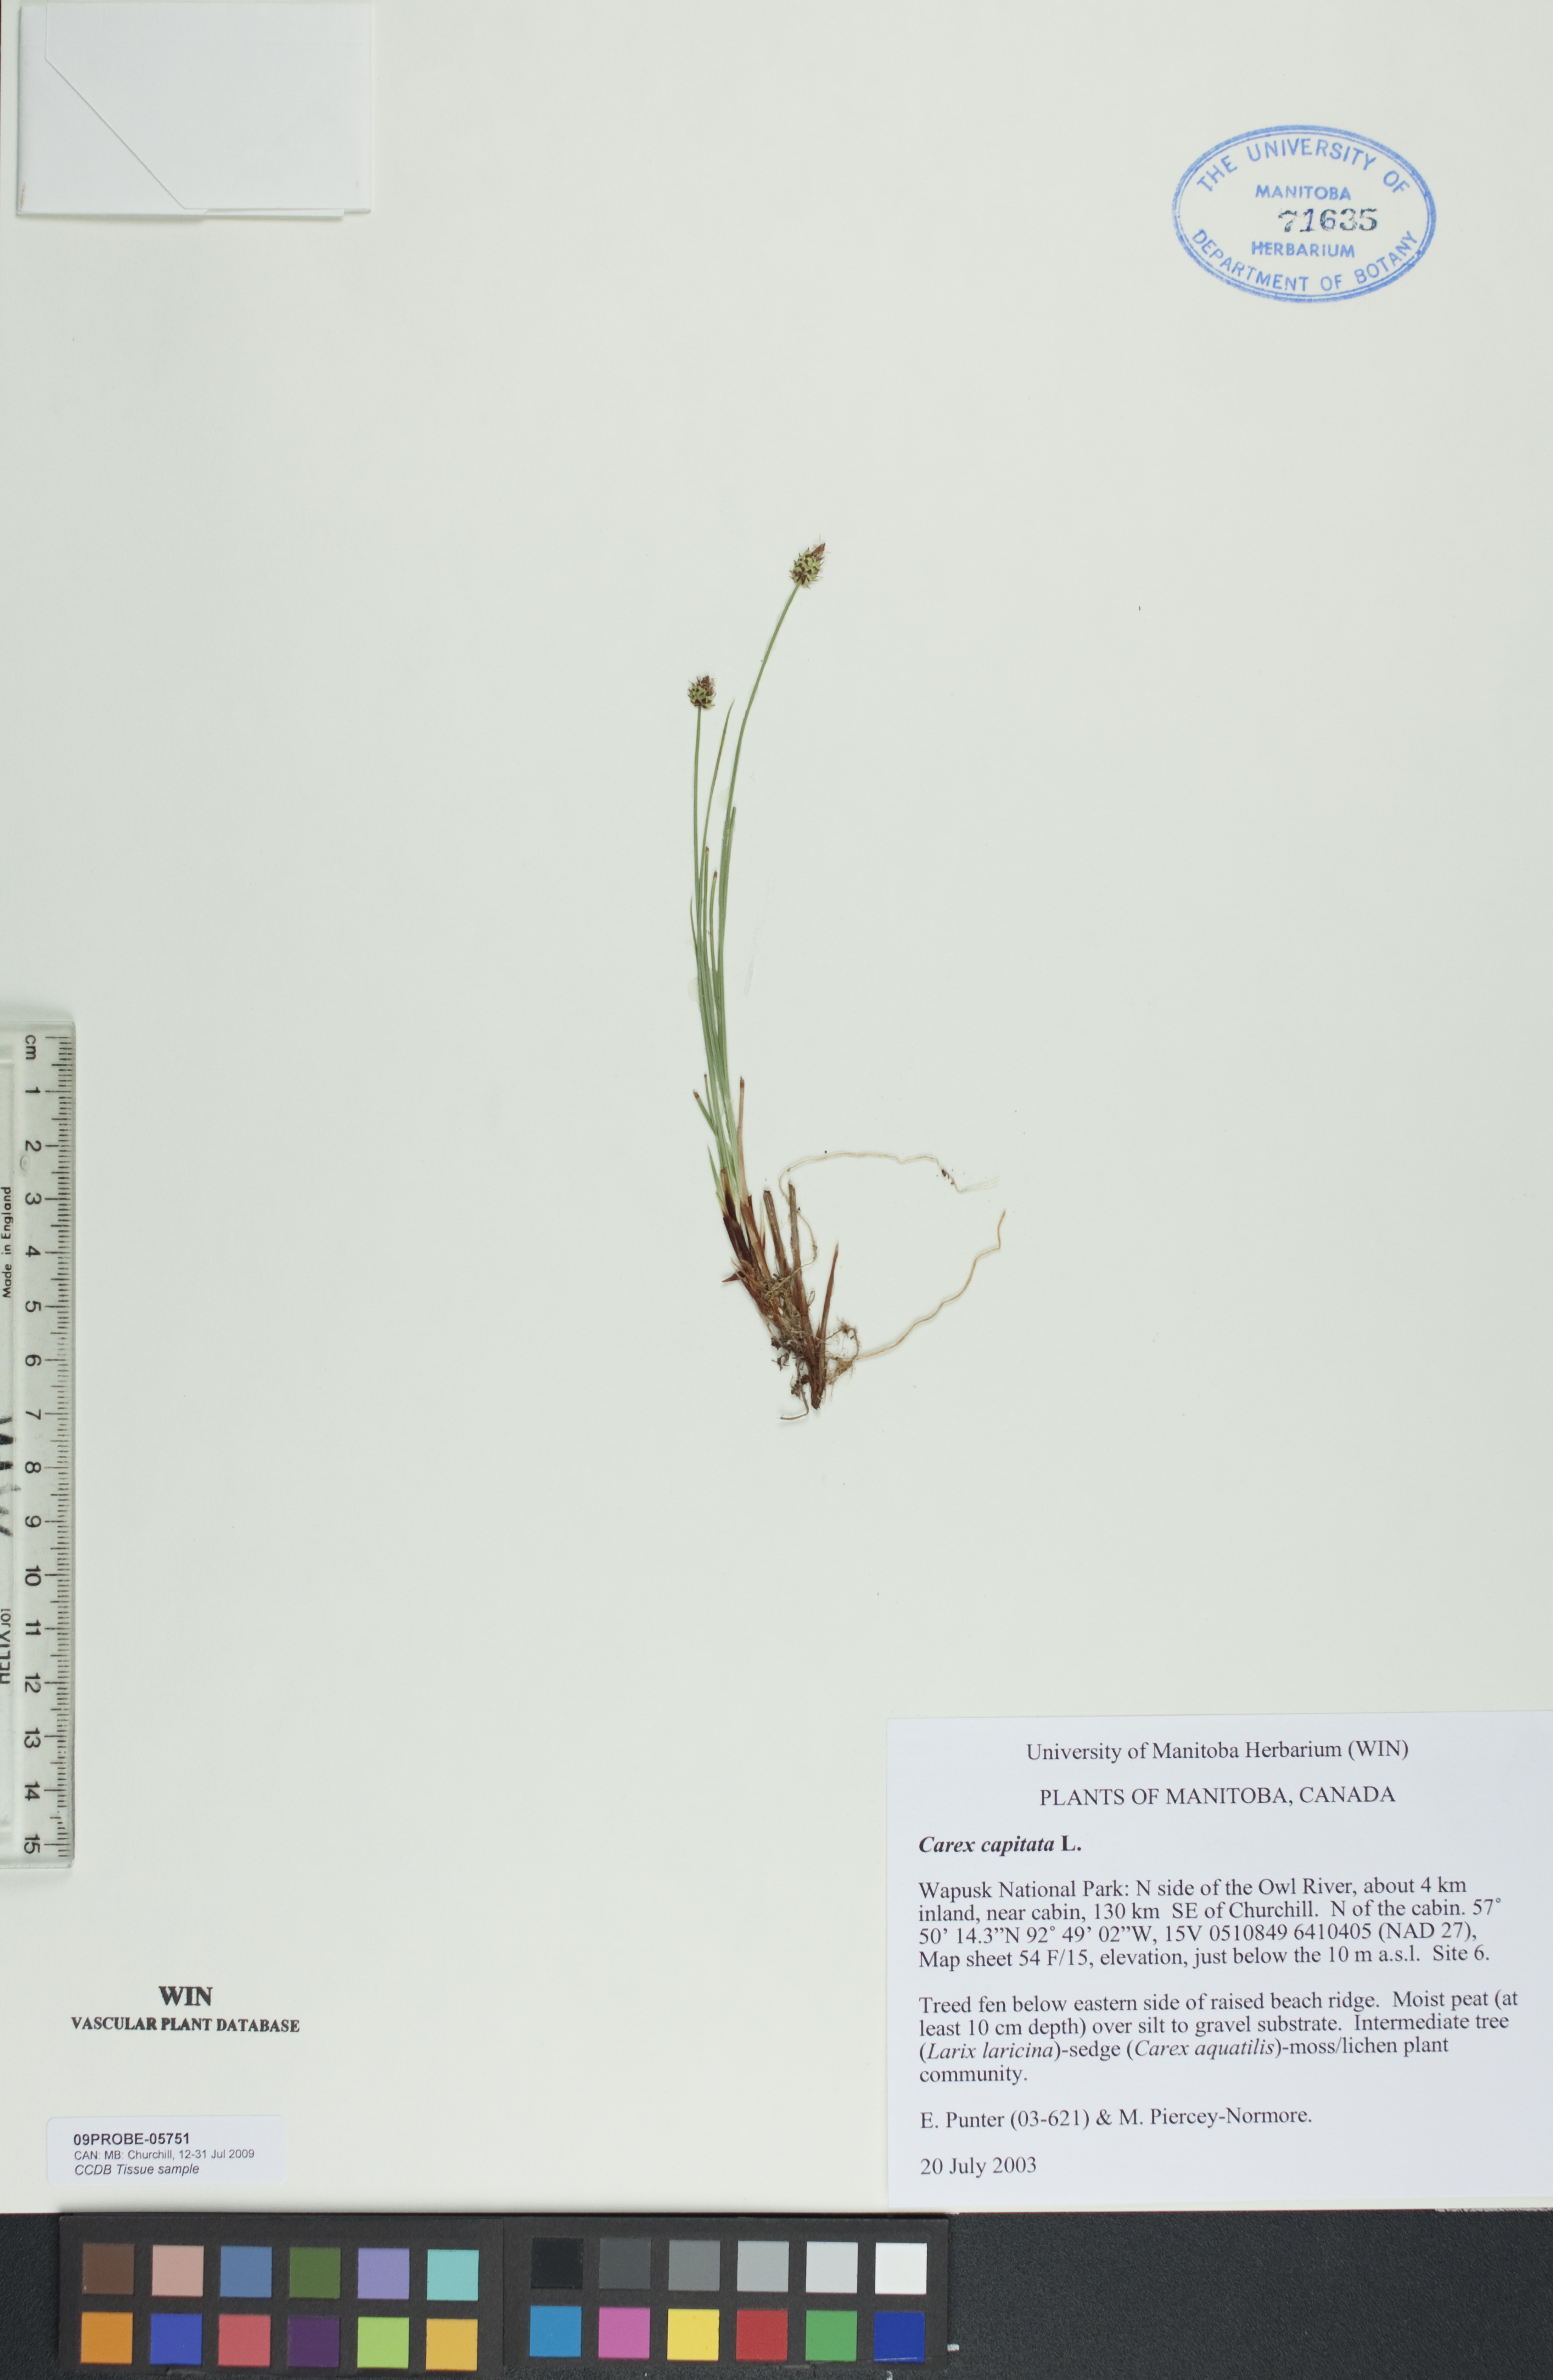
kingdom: Plantae
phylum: Tracheophyta
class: Liliopsida
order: Poales
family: Cyperaceae
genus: Carex
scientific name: Carex capitata
